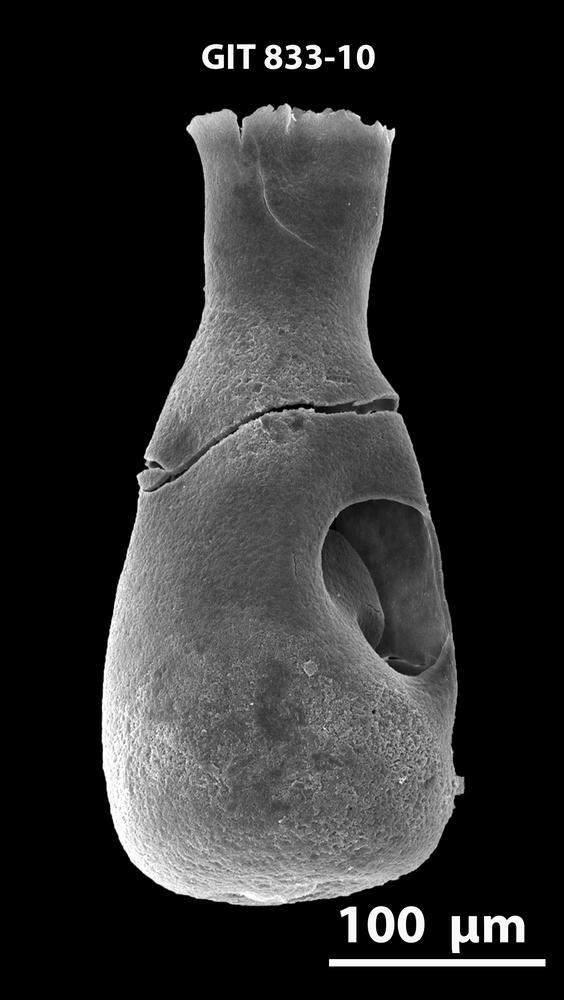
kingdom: Animalia
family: Lagenochitinidae
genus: Lagenochitina
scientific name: Lagenochitina
